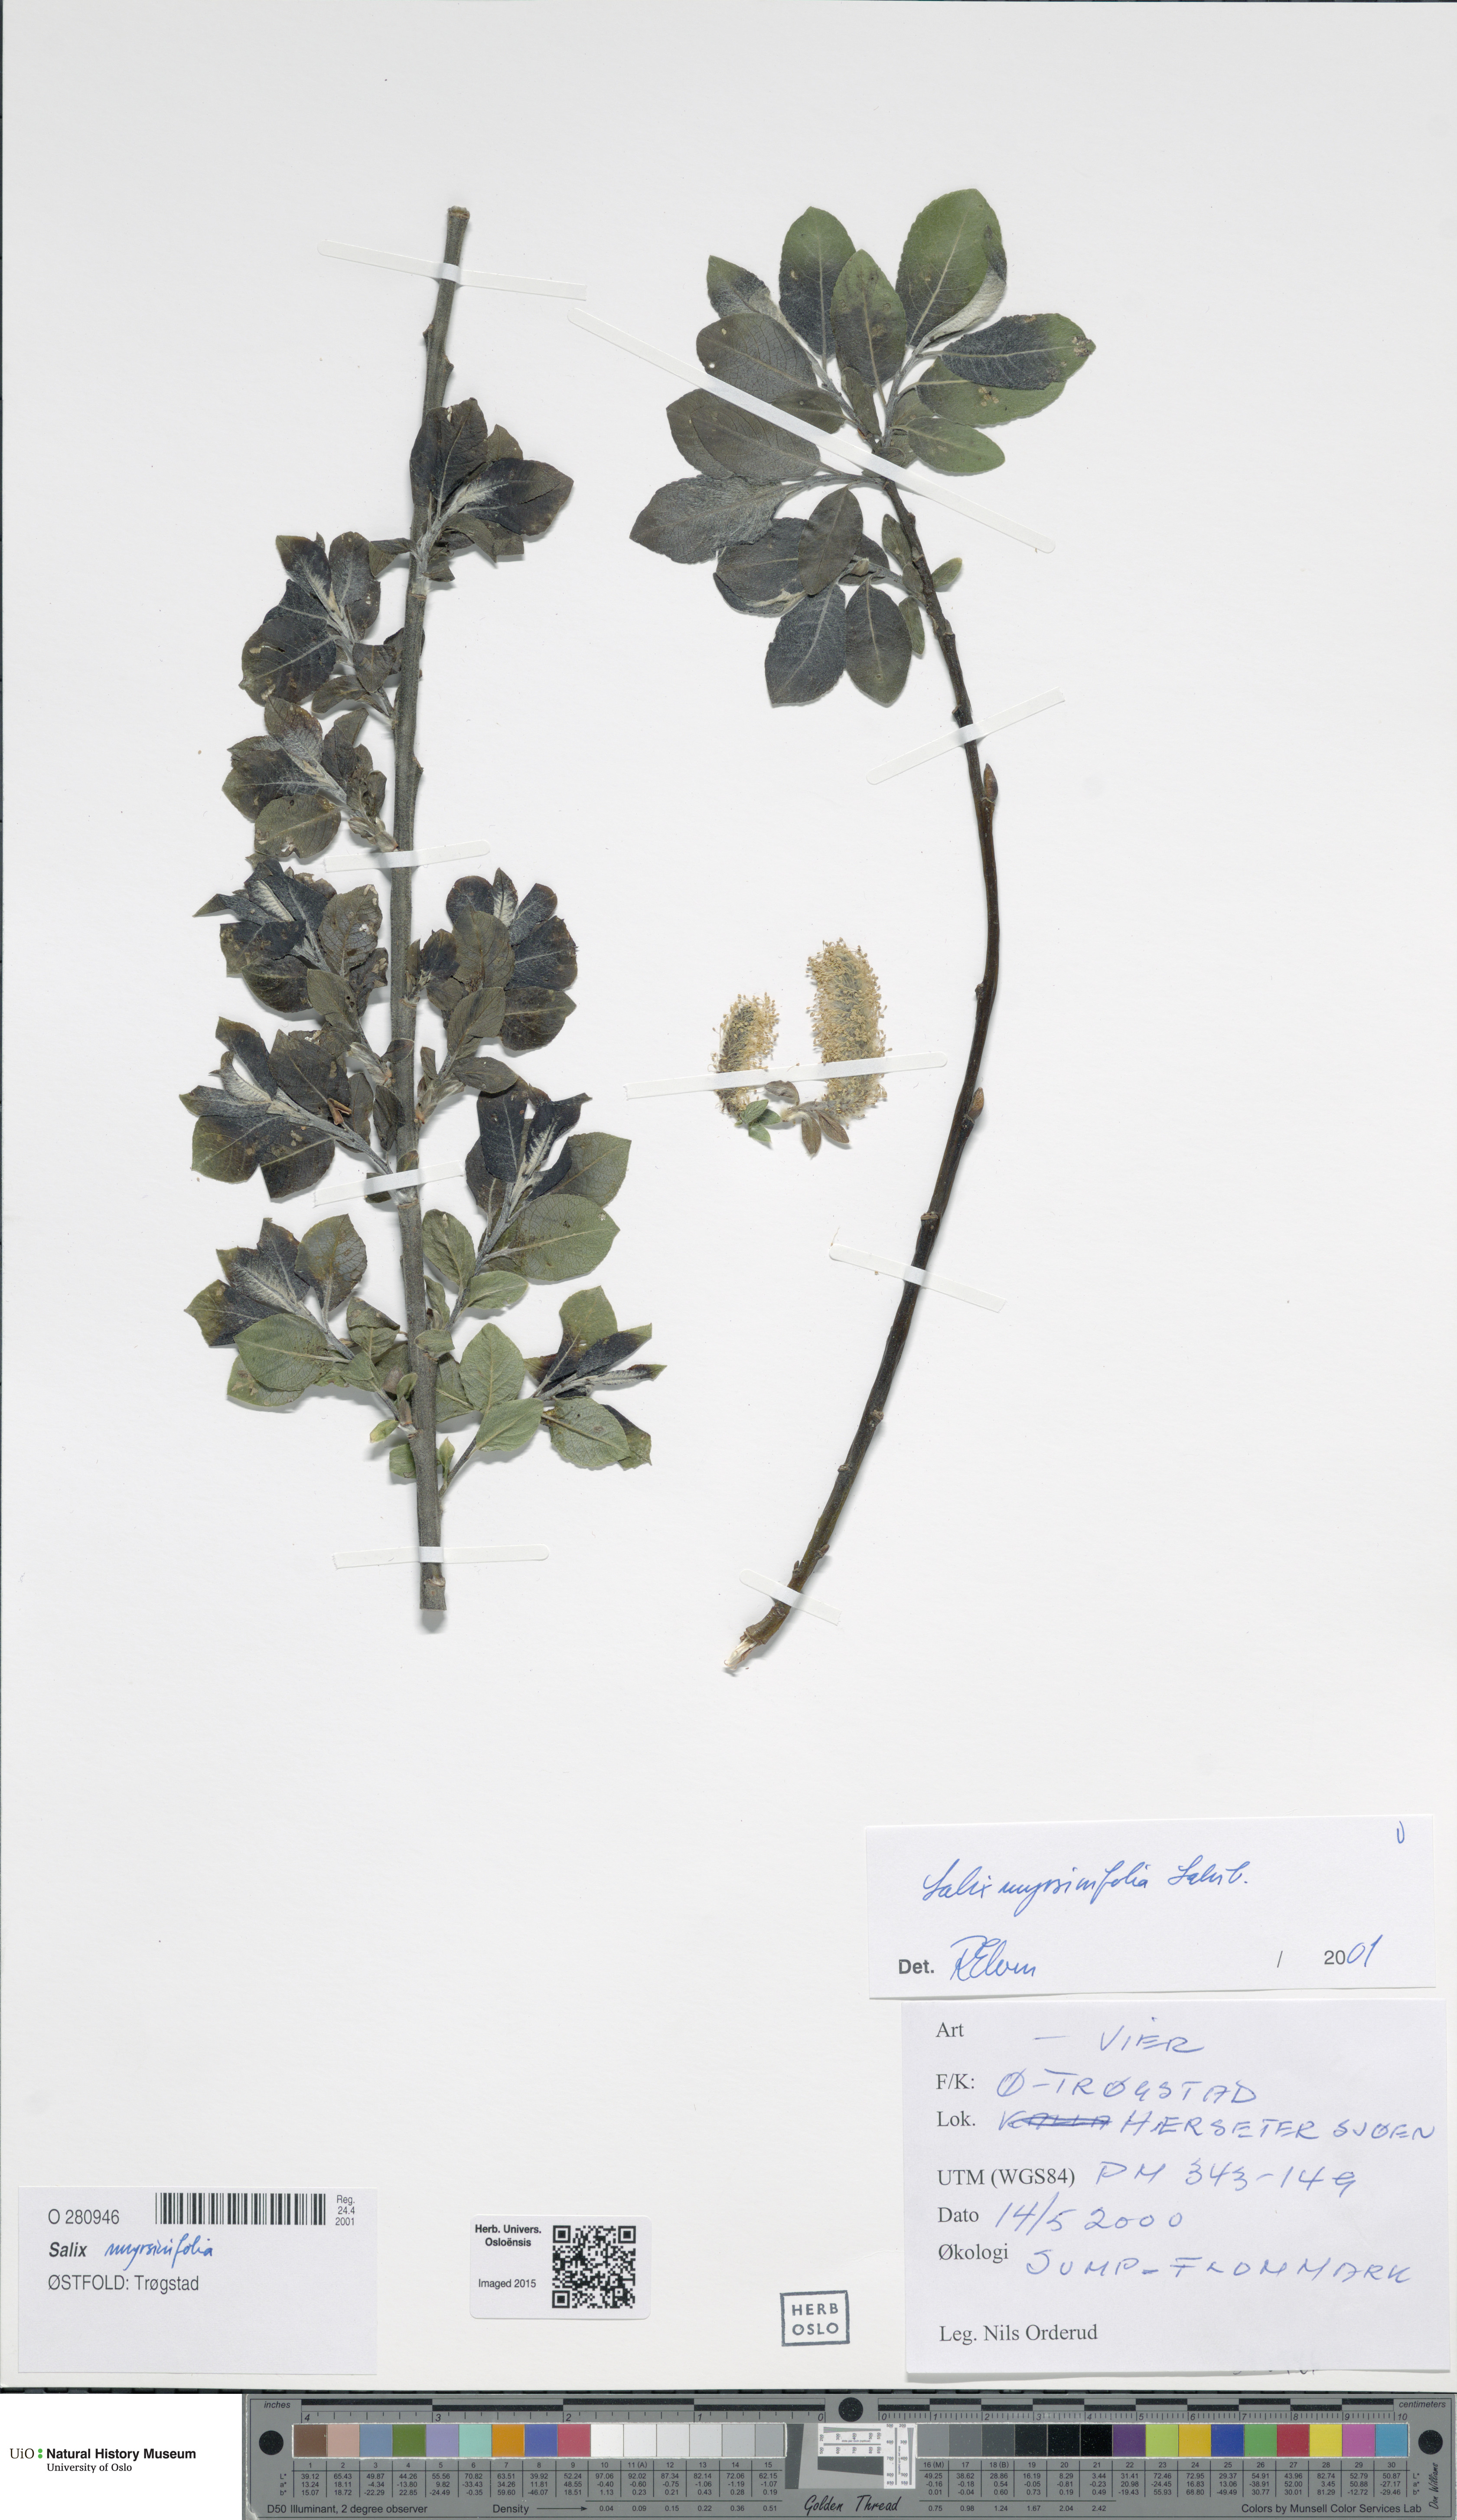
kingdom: Plantae
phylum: Tracheophyta
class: Magnoliopsida
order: Malpighiales
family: Salicaceae
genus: Salix
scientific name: Salix myrsinifolia
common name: Dark-leaved willow
